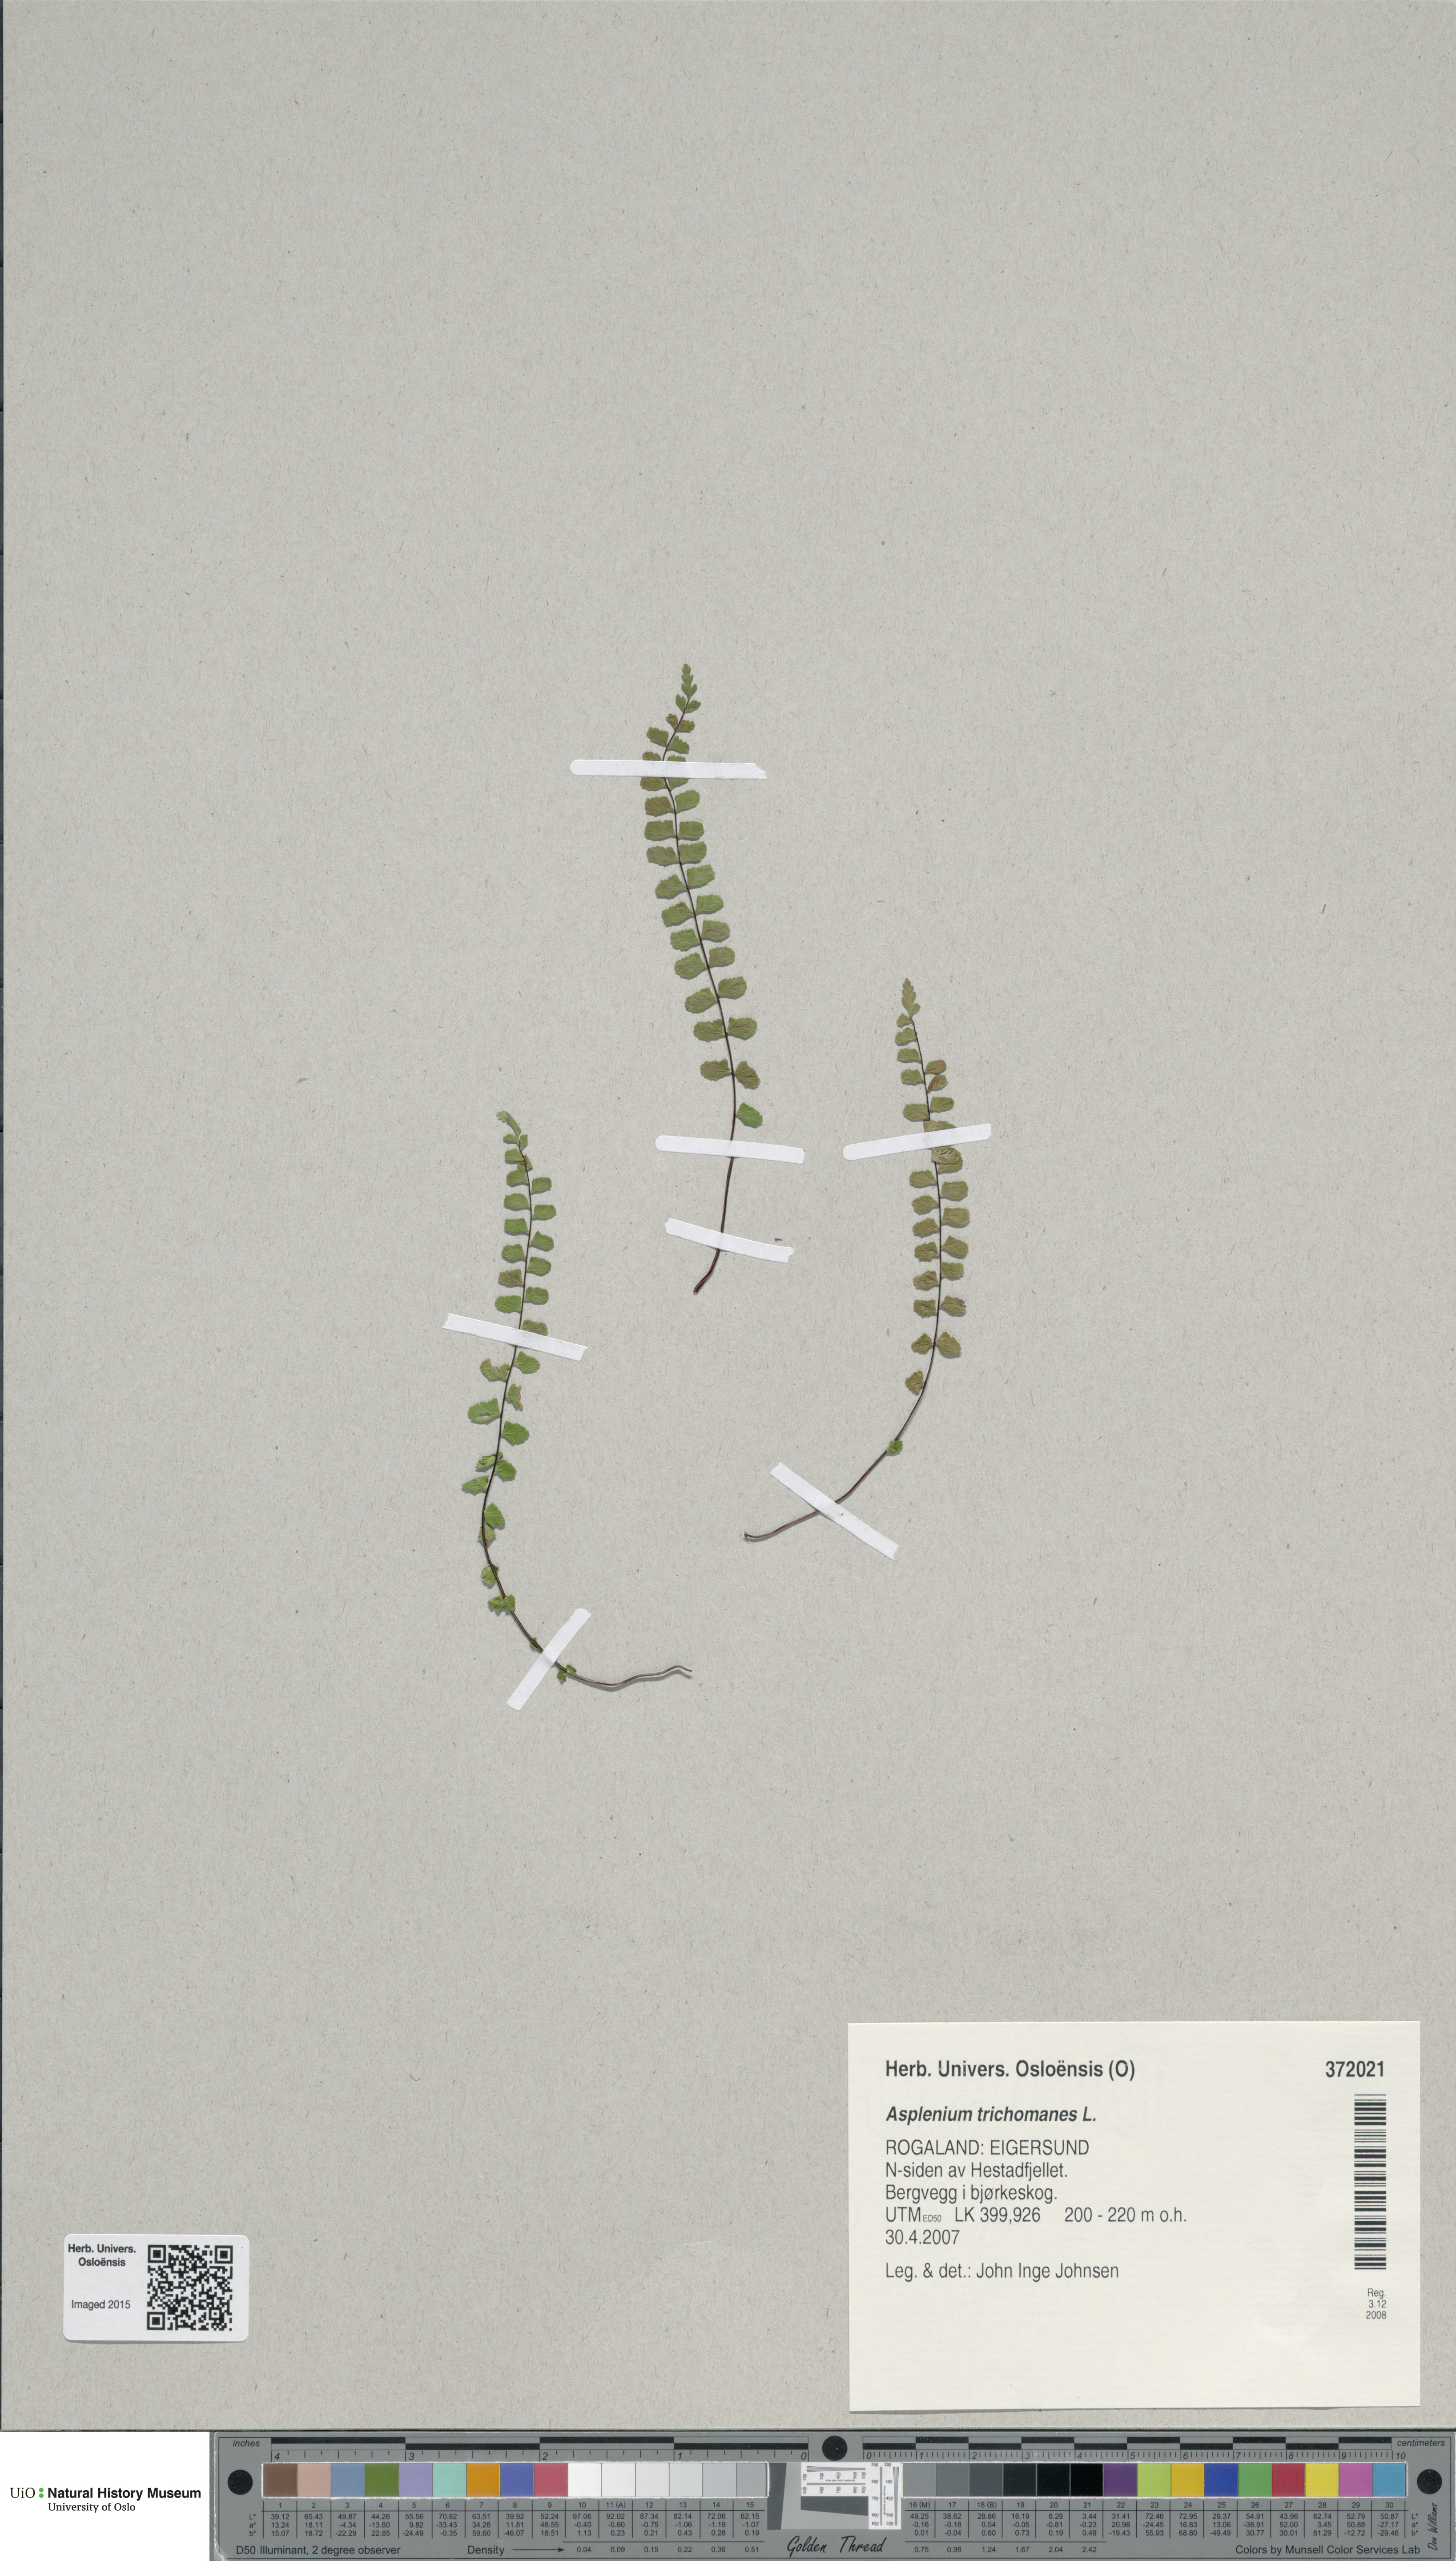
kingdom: Plantae
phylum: Tracheophyta
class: Polypodiopsida
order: Polypodiales
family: Aspleniaceae
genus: Asplenium
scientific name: Asplenium trichomanes
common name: Maidenhair spleenwort
